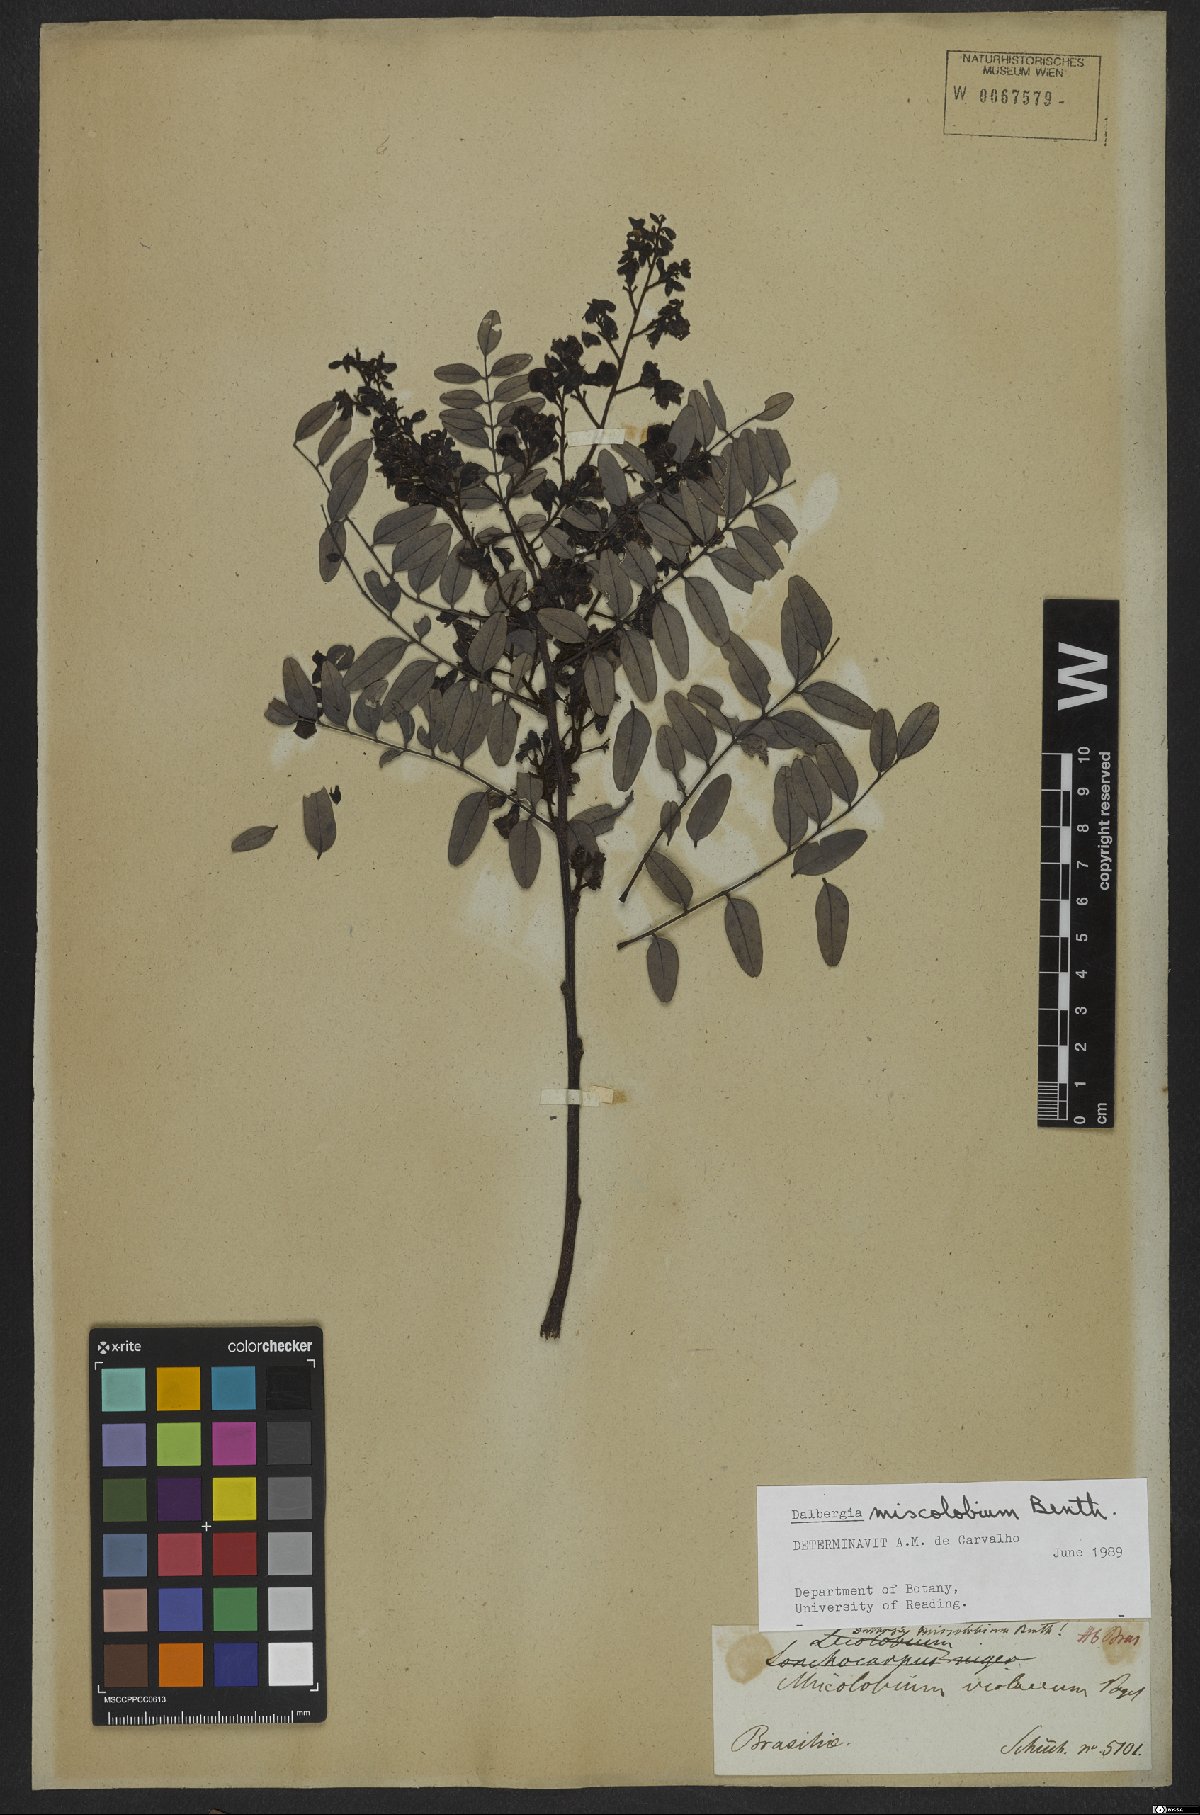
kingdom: Plantae
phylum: Tracheophyta
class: Magnoliopsida
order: Fabales
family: Fabaceae
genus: Dalbergia
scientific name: Dalbergia miscolobium
